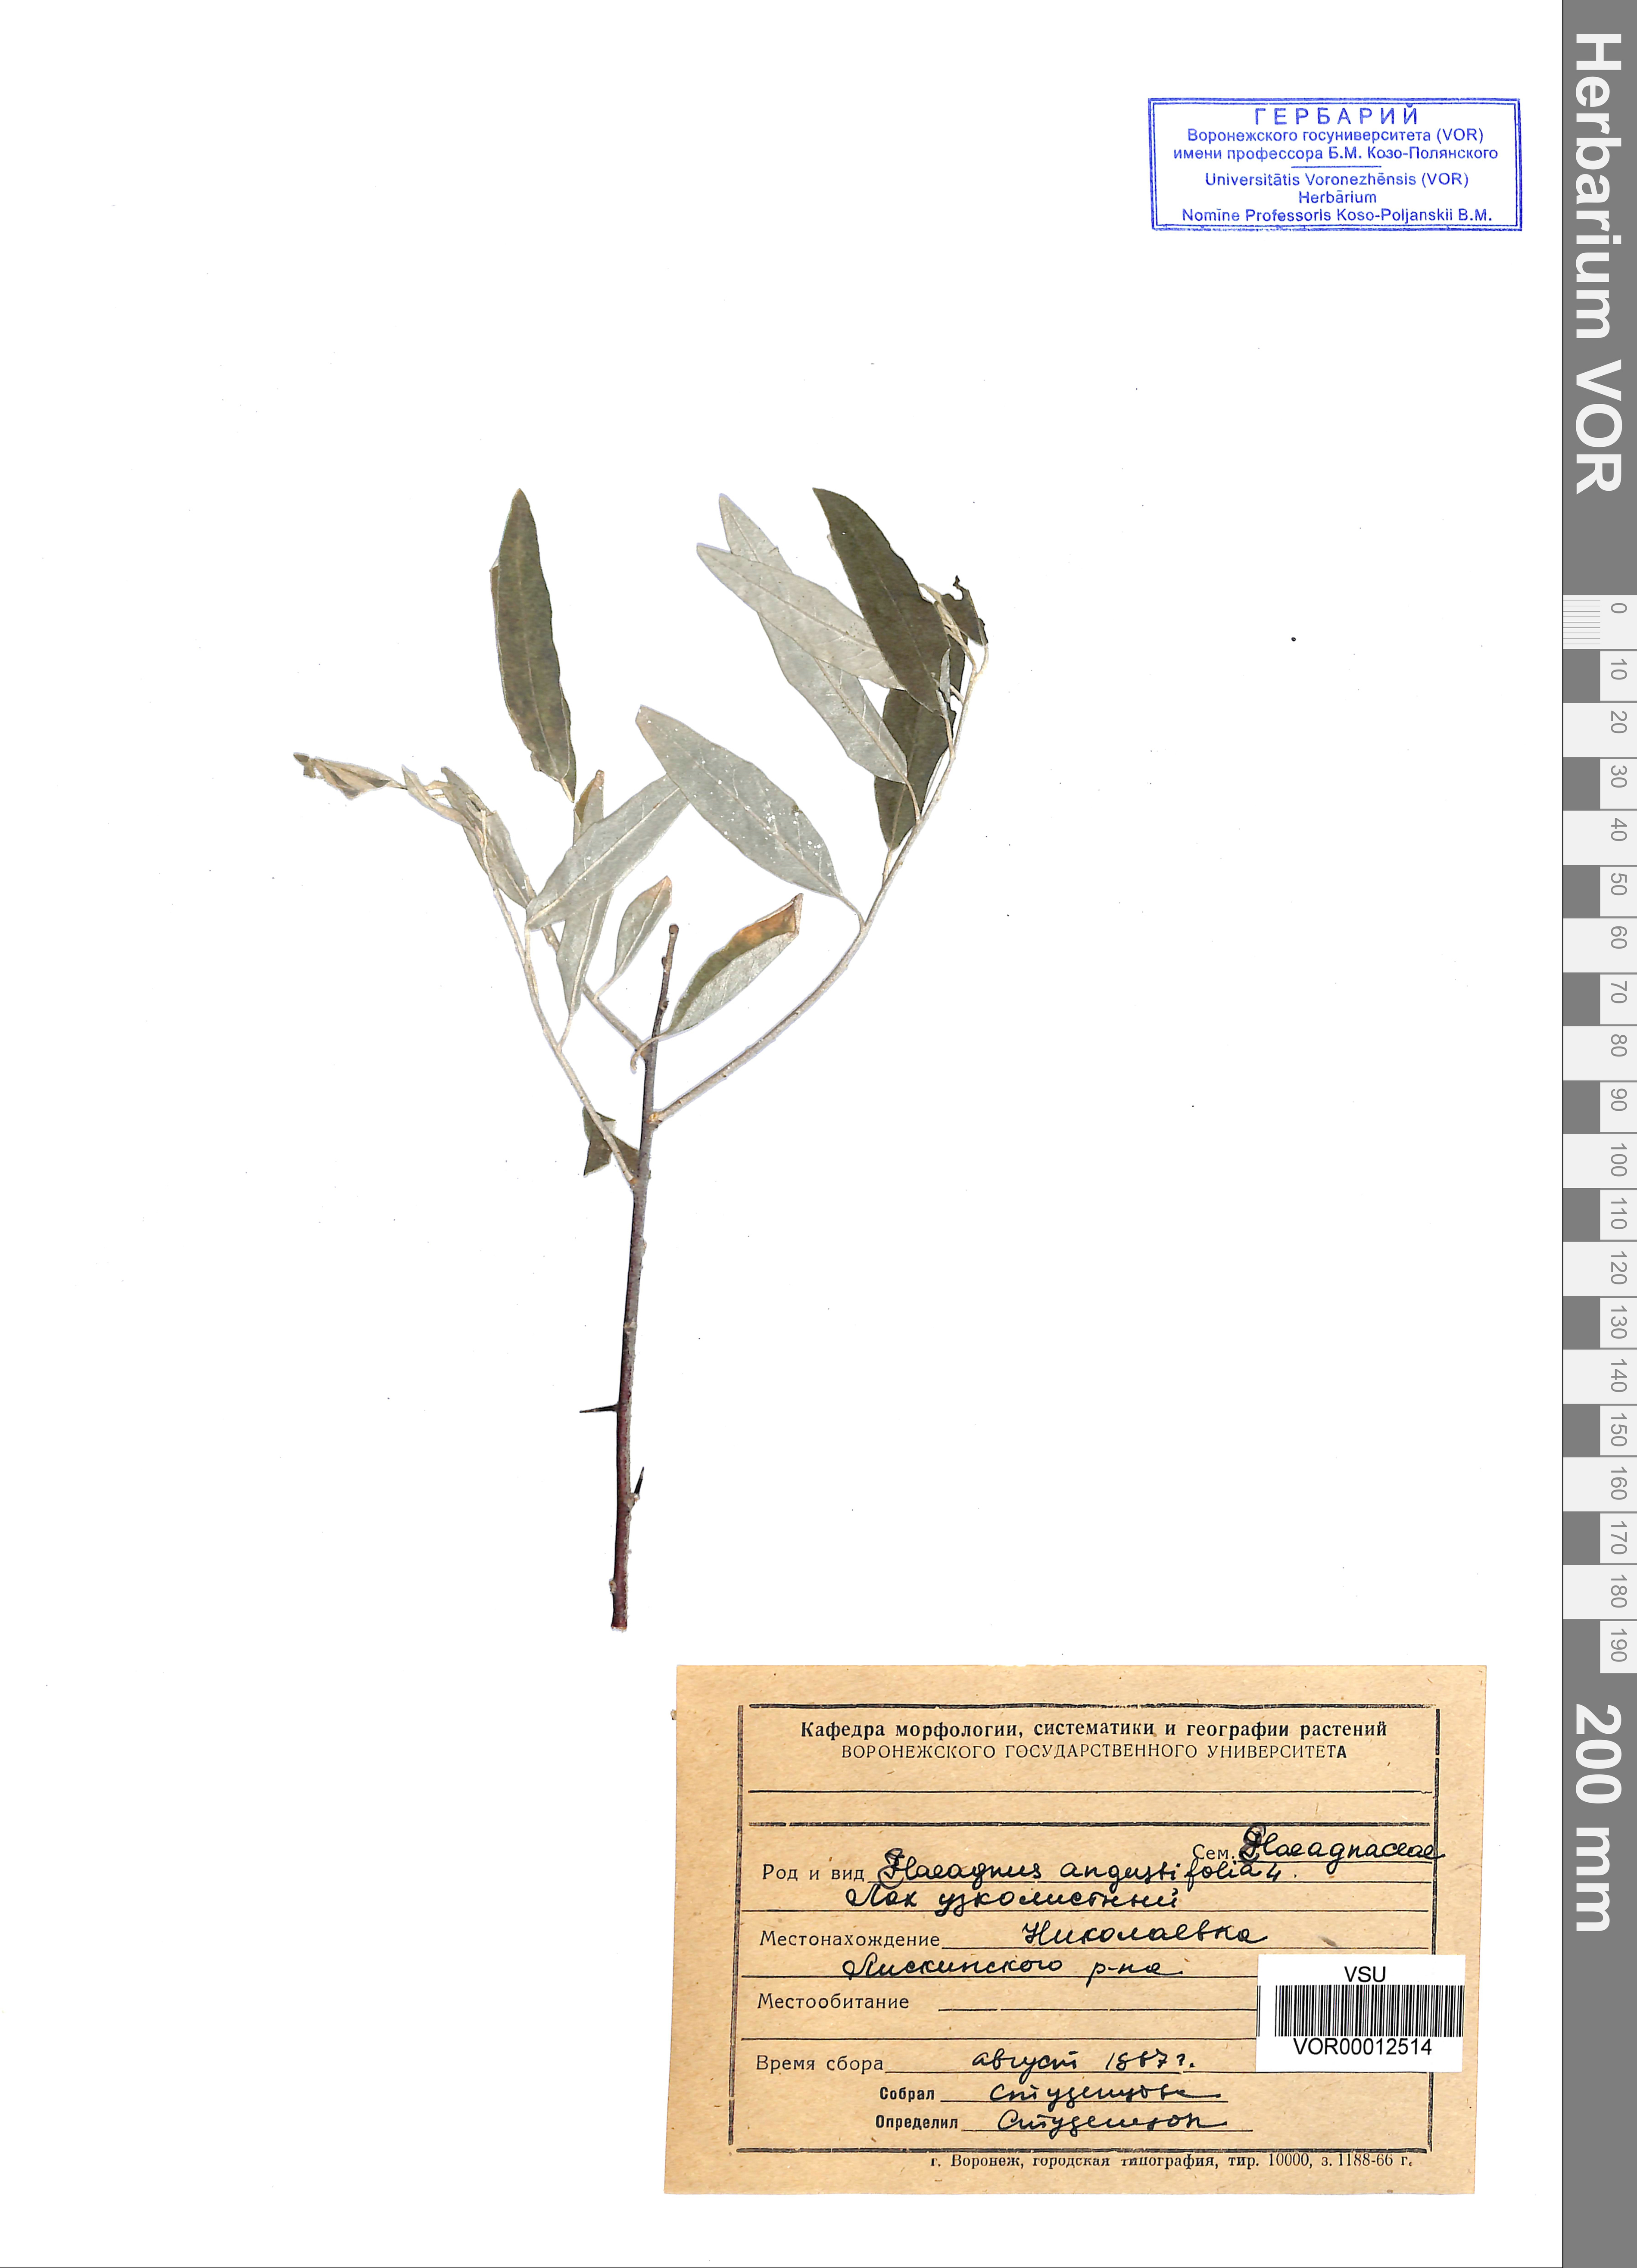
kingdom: Plantae
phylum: Tracheophyta
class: Magnoliopsida
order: Rosales
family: Elaeagnaceae
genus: Elaeagnus
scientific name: Elaeagnus angustifolia
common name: Russian olive
